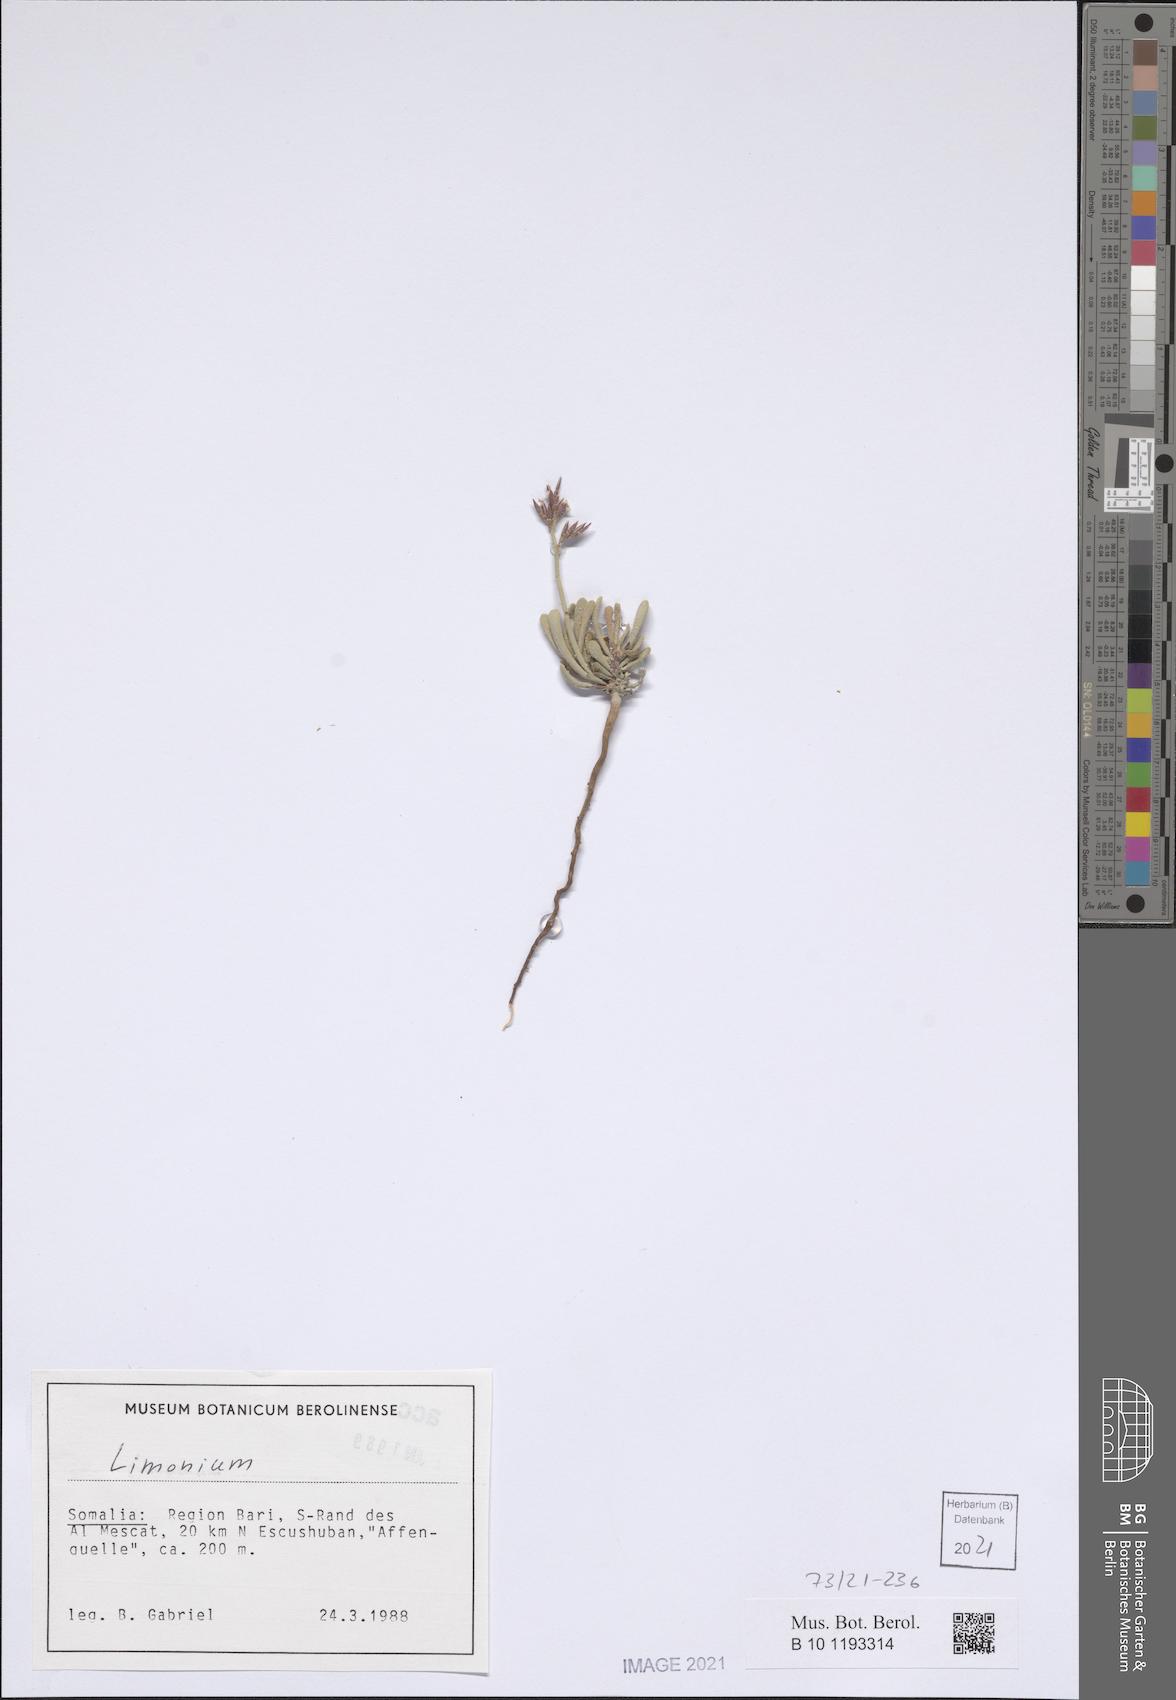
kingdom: Plantae
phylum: Tracheophyta
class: Magnoliopsida
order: Caryophyllales
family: Plumbaginaceae
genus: Limonium
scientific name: Limonium
